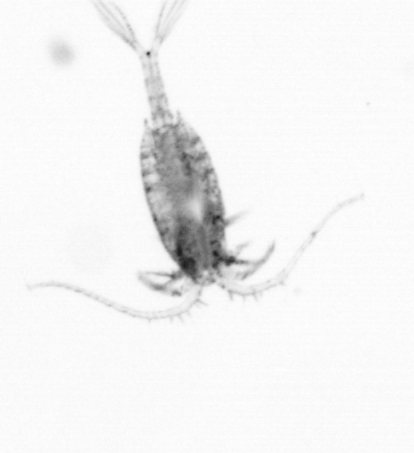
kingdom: Animalia
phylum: Arthropoda
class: Copepoda
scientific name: Copepoda
